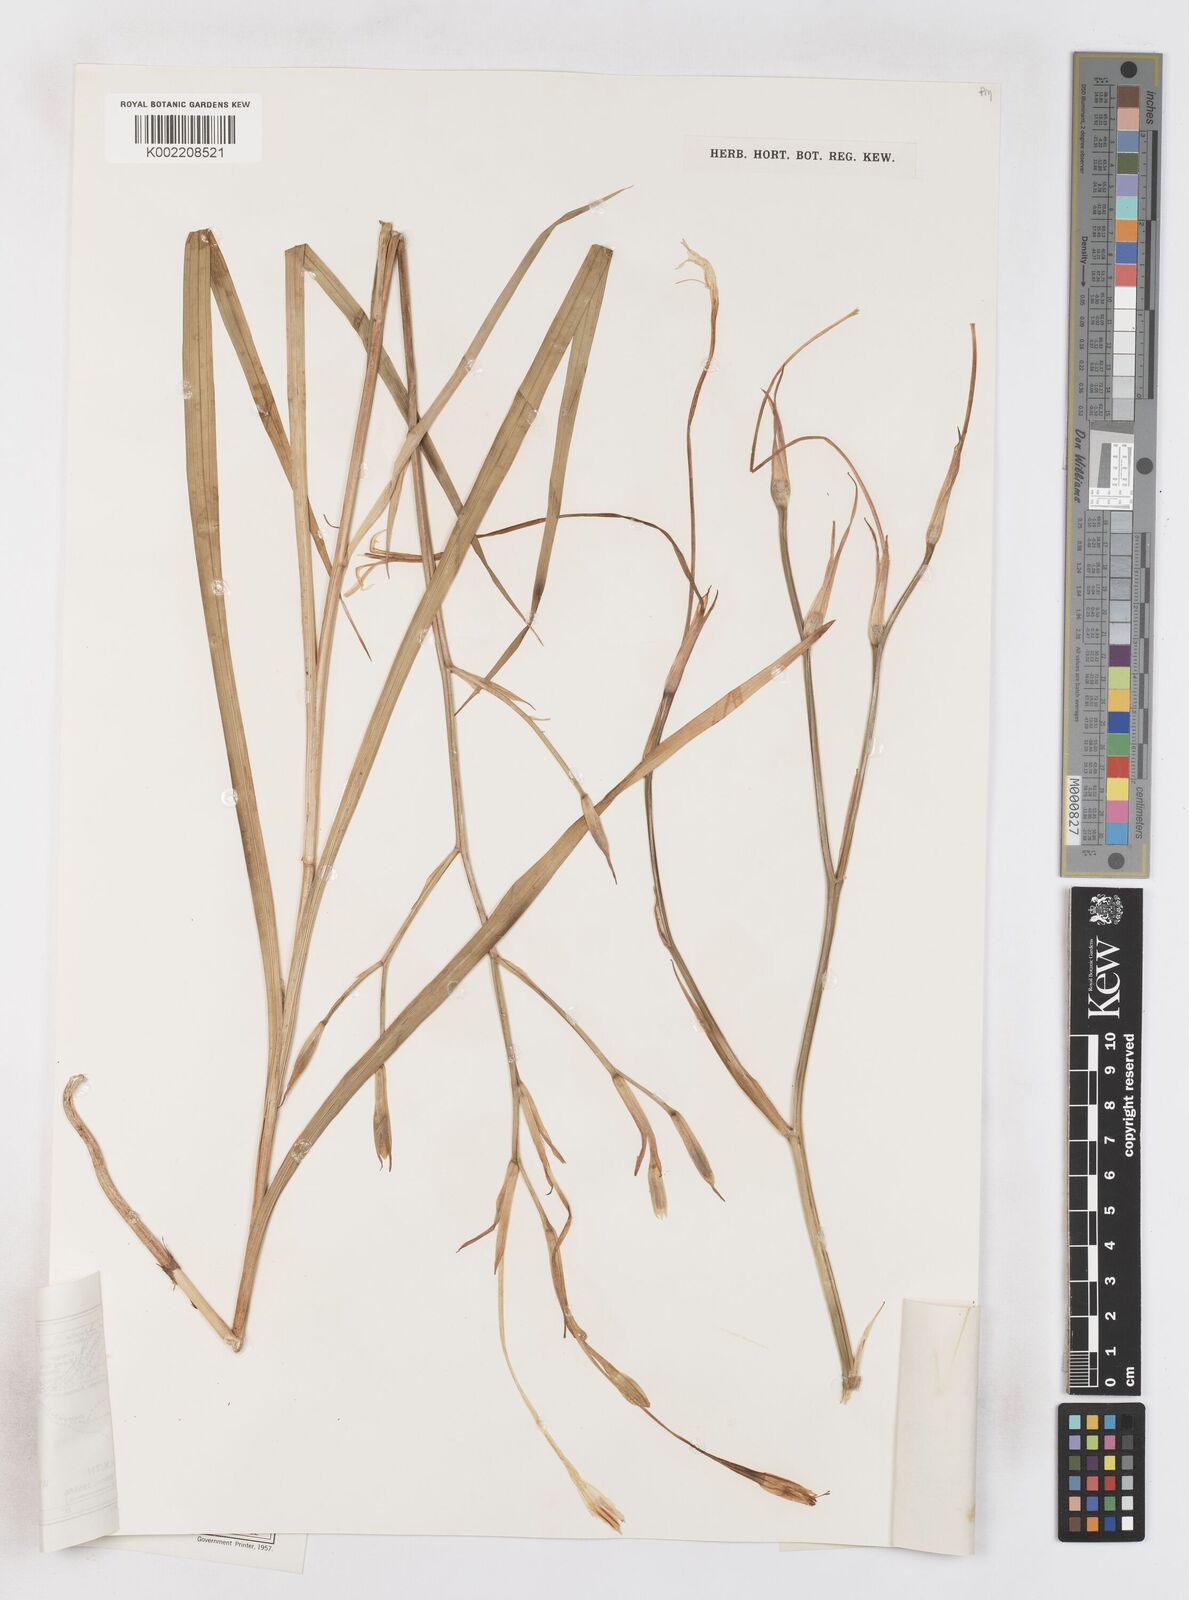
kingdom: Plantae
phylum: Tracheophyta
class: Liliopsida
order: Asparagales
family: Iridaceae
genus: Afrosolen
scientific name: Afrosolen schimperi
